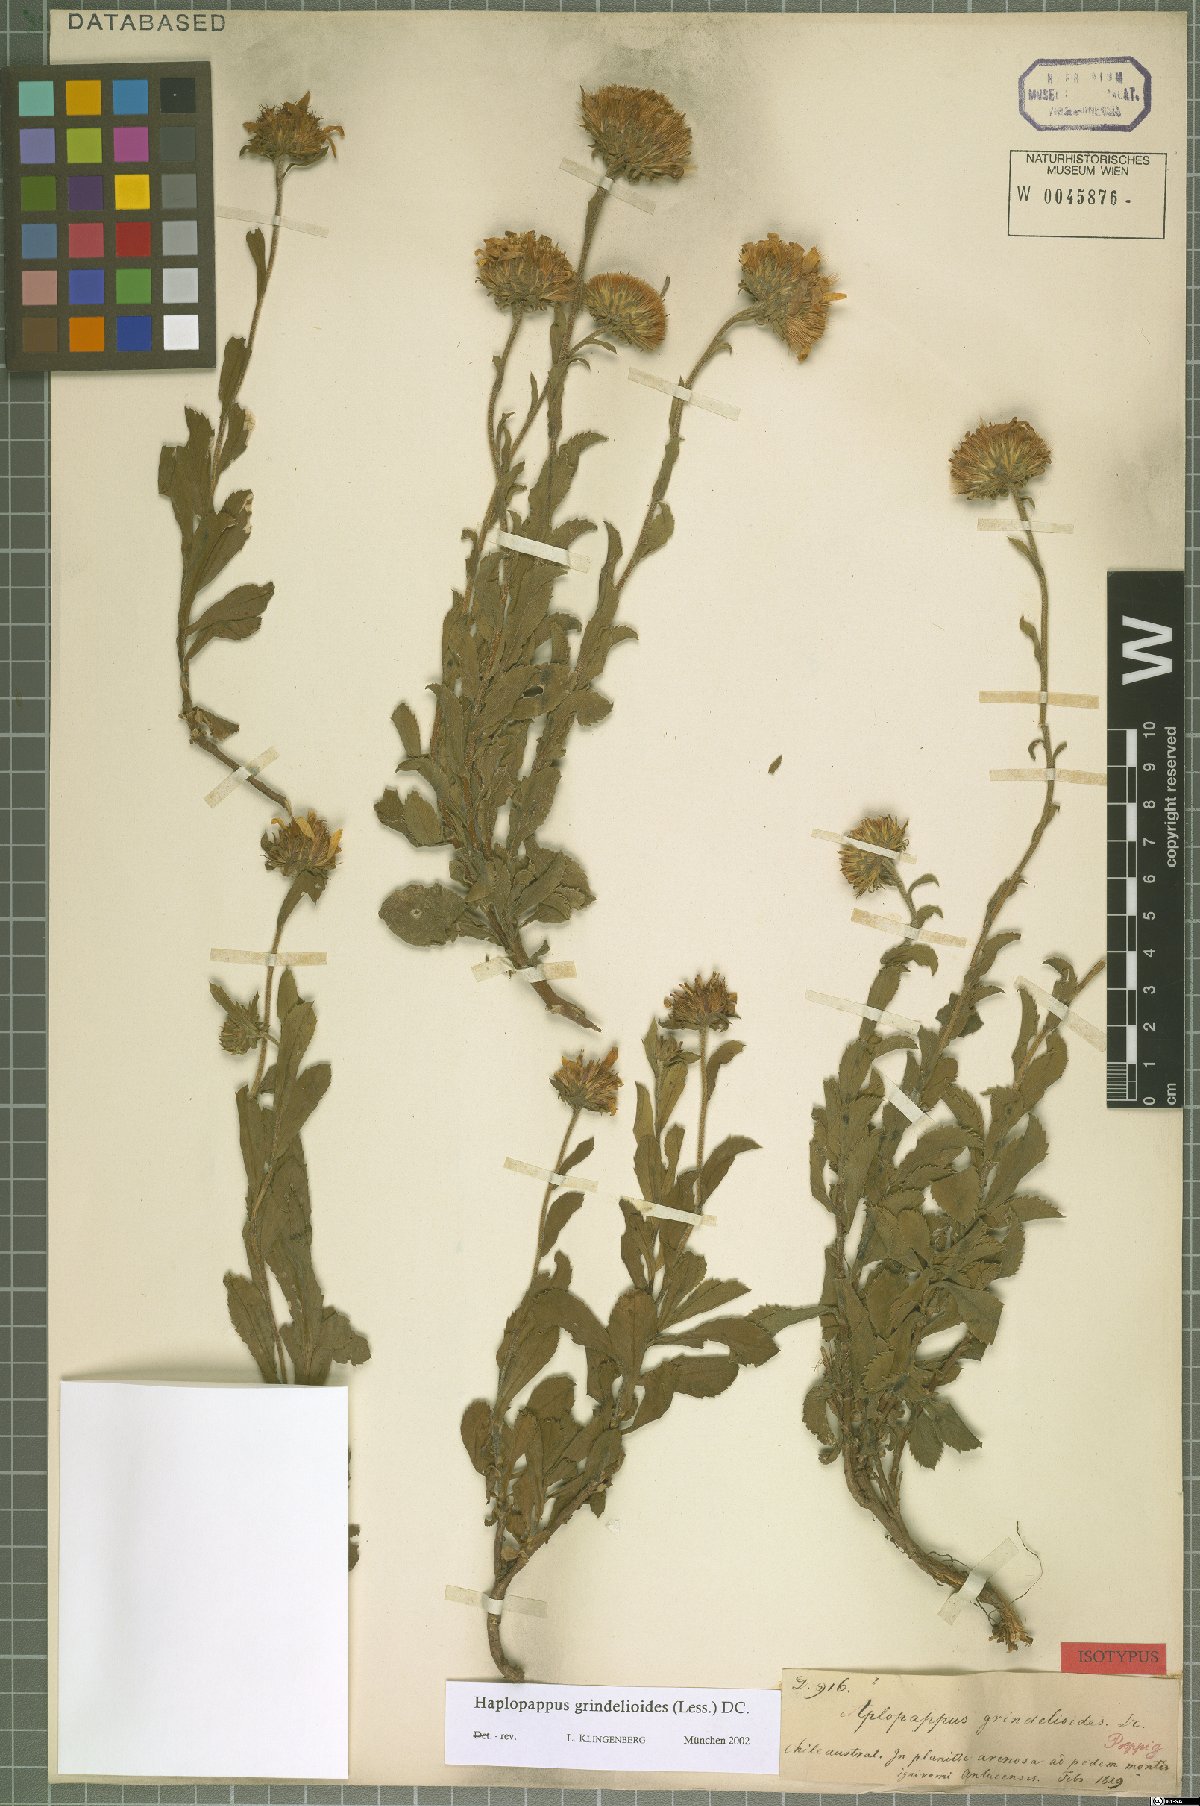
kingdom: Plantae
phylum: Tracheophyta
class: Magnoliopsida
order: Asterales
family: Asteraceae
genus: Haplopappus
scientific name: Haplopappus grindelioides
